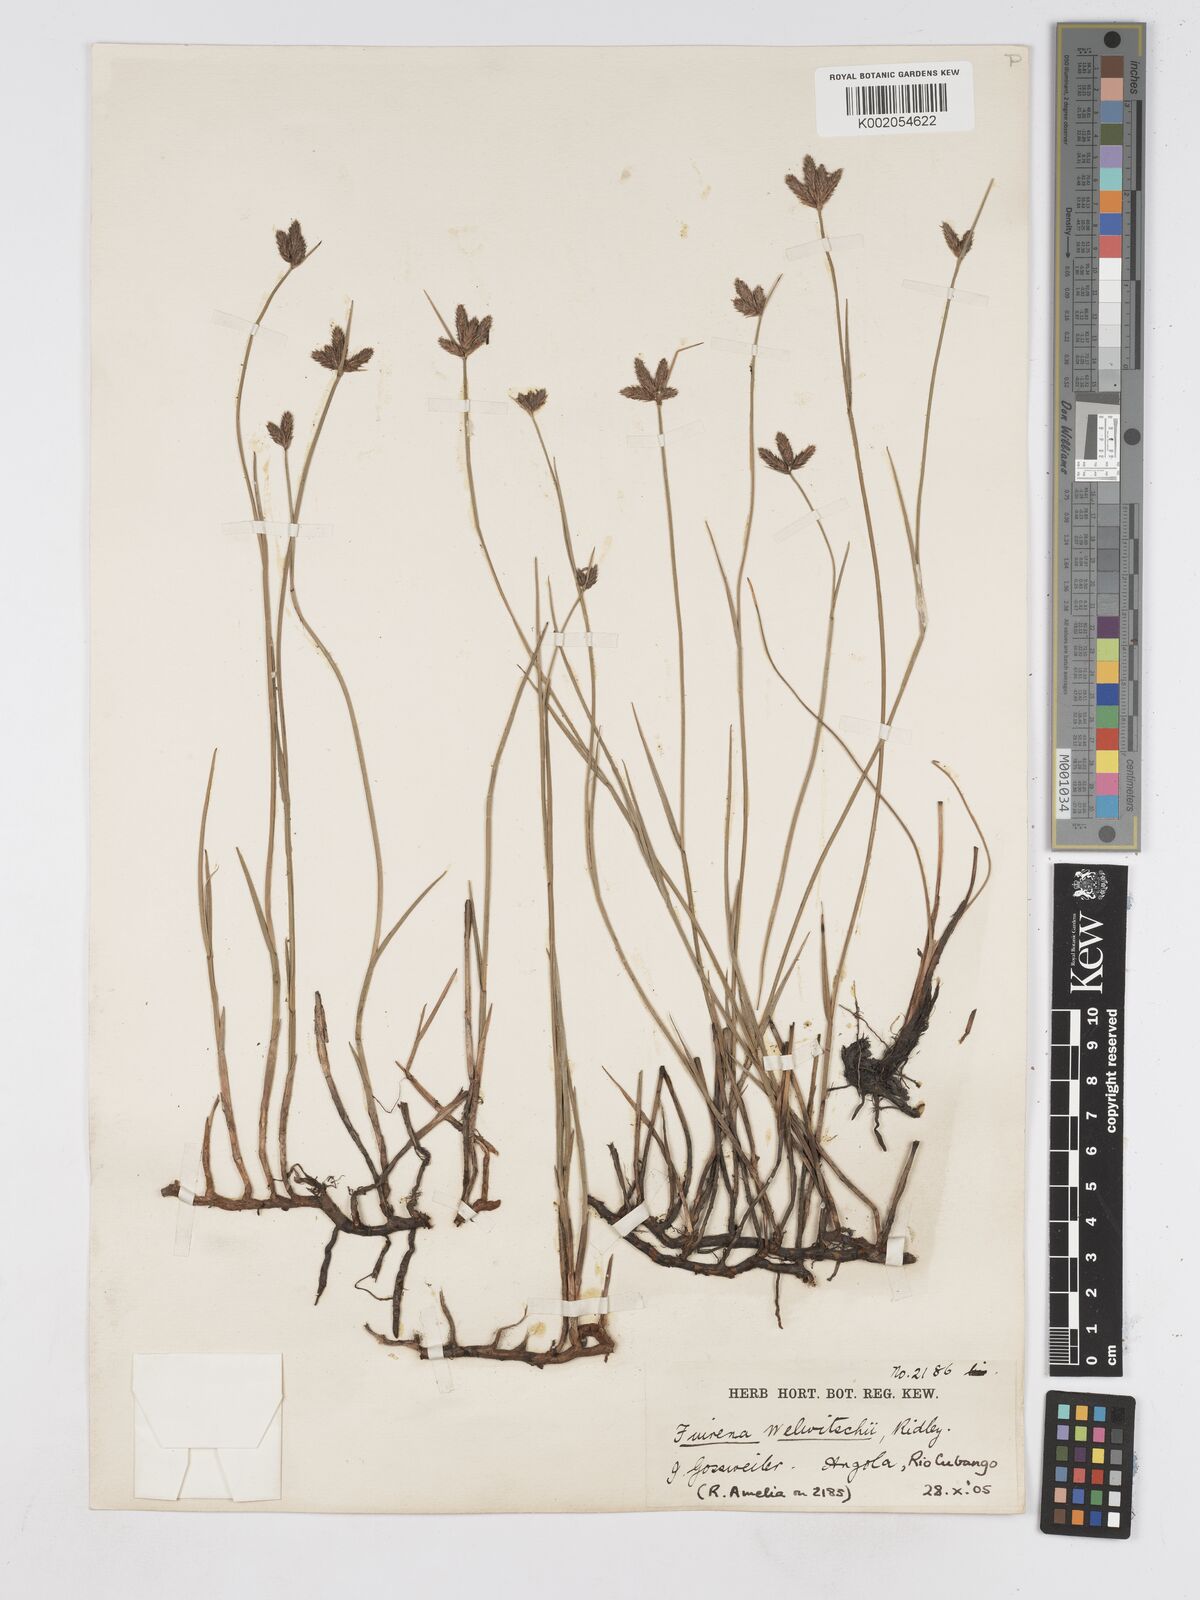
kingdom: Plantae
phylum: Tracheophyta
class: Liliopsida
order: Poales
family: Cyperaceae
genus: Fuirena
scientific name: Fuirena welwitschii
